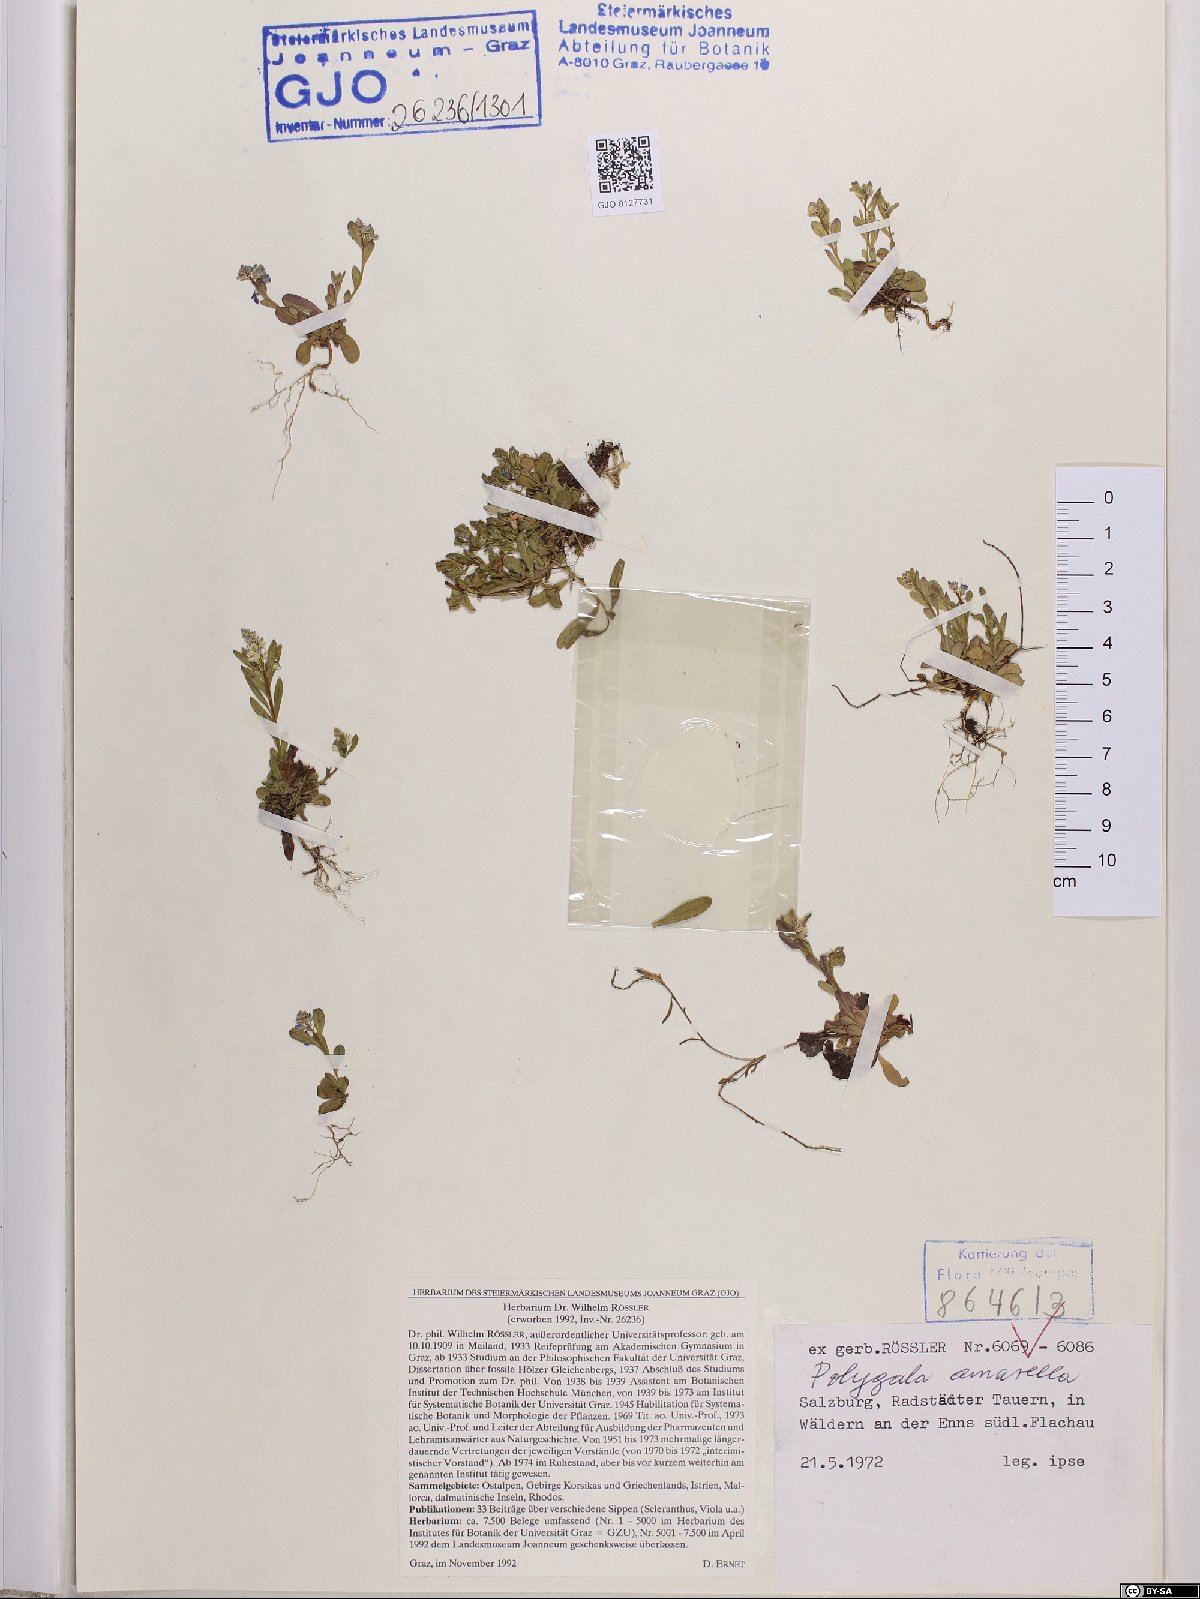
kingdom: Plantae
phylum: Tracheophyta
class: Magnoliopsida
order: Fabales
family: Polygalaceae
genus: Polygala
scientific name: Polygala amarella
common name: Dwarf milkwort
